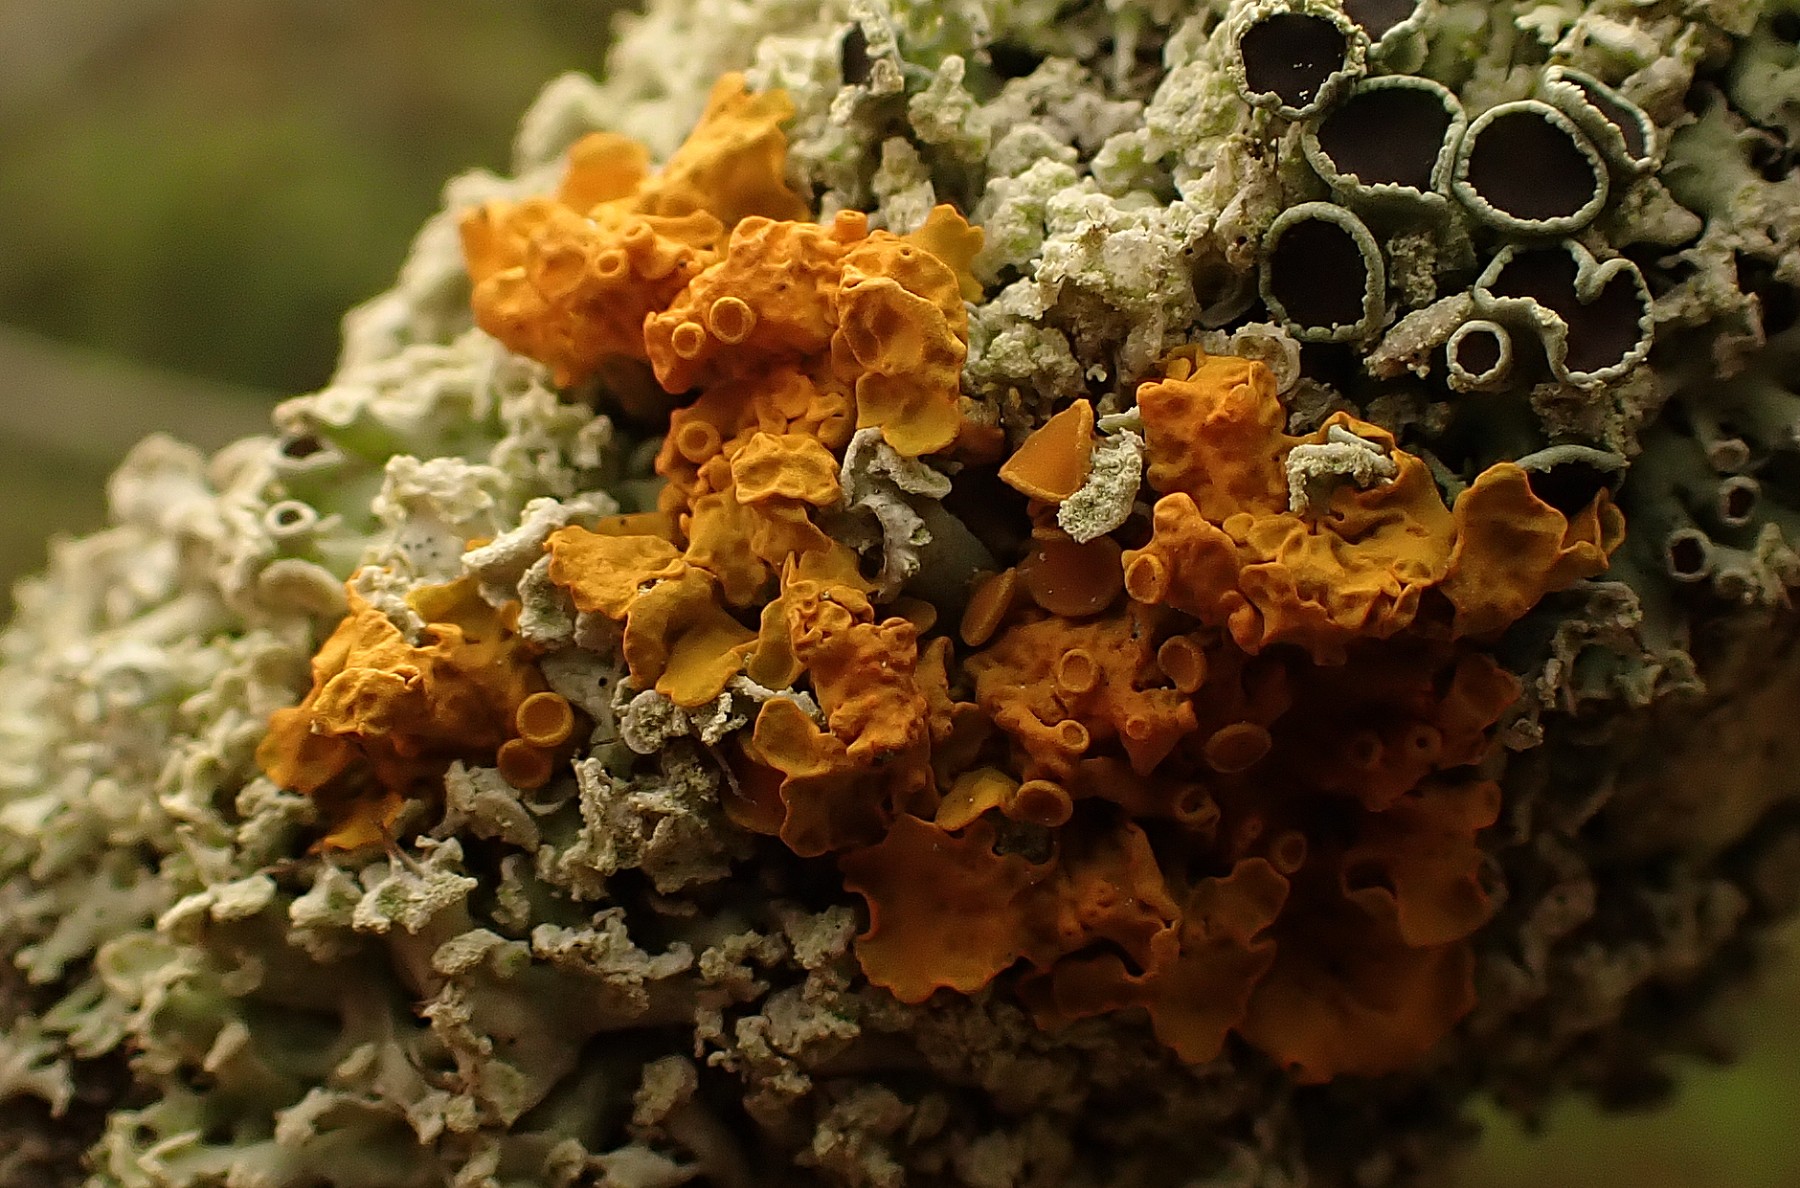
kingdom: Fungi
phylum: Ascomycota
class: Lecanoromycetes
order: Teloschistales
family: Teloschistaceae
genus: Xanthoria
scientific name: Xanthoria parietina
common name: almindelig væggelav
